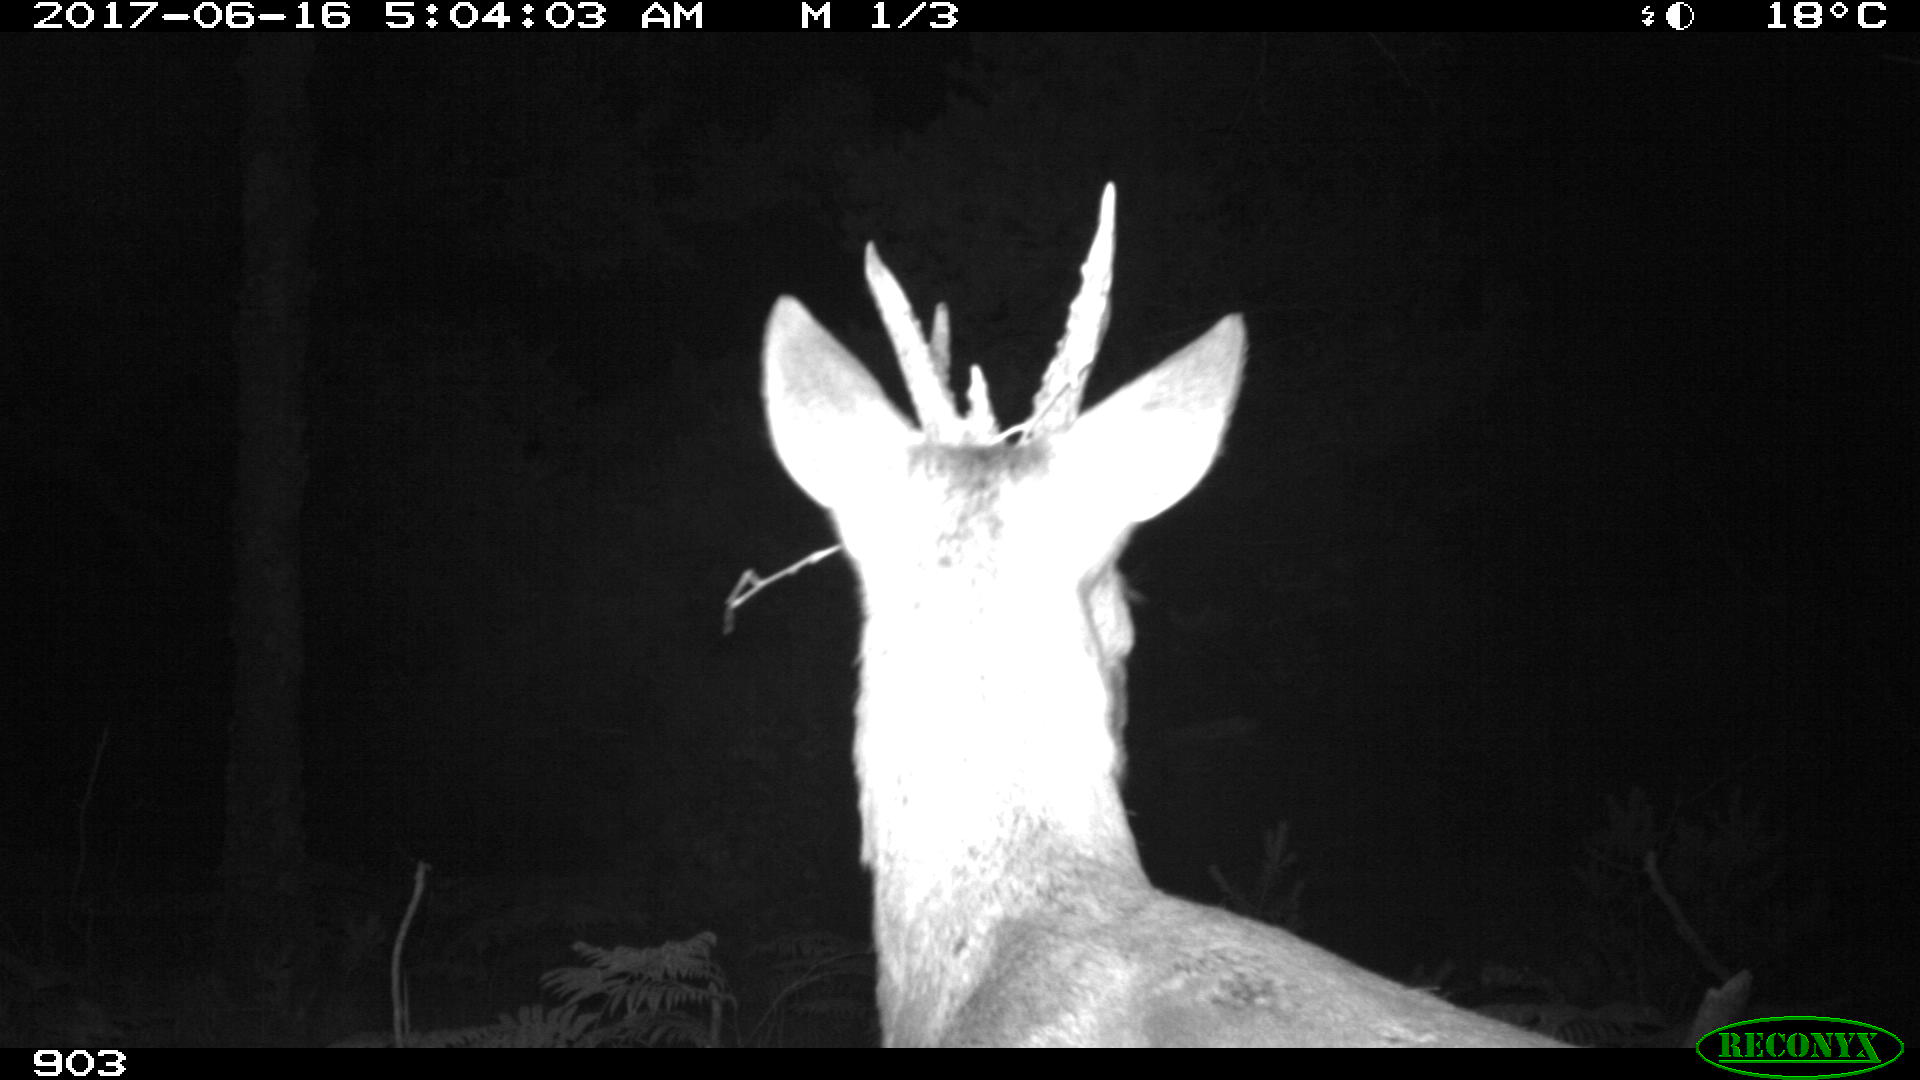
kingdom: Animalia
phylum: Chordata
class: Mammalia
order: Artiodactyla
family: Cervidae
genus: Capreolus
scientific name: Capreolus capreolus
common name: Western roe deer
